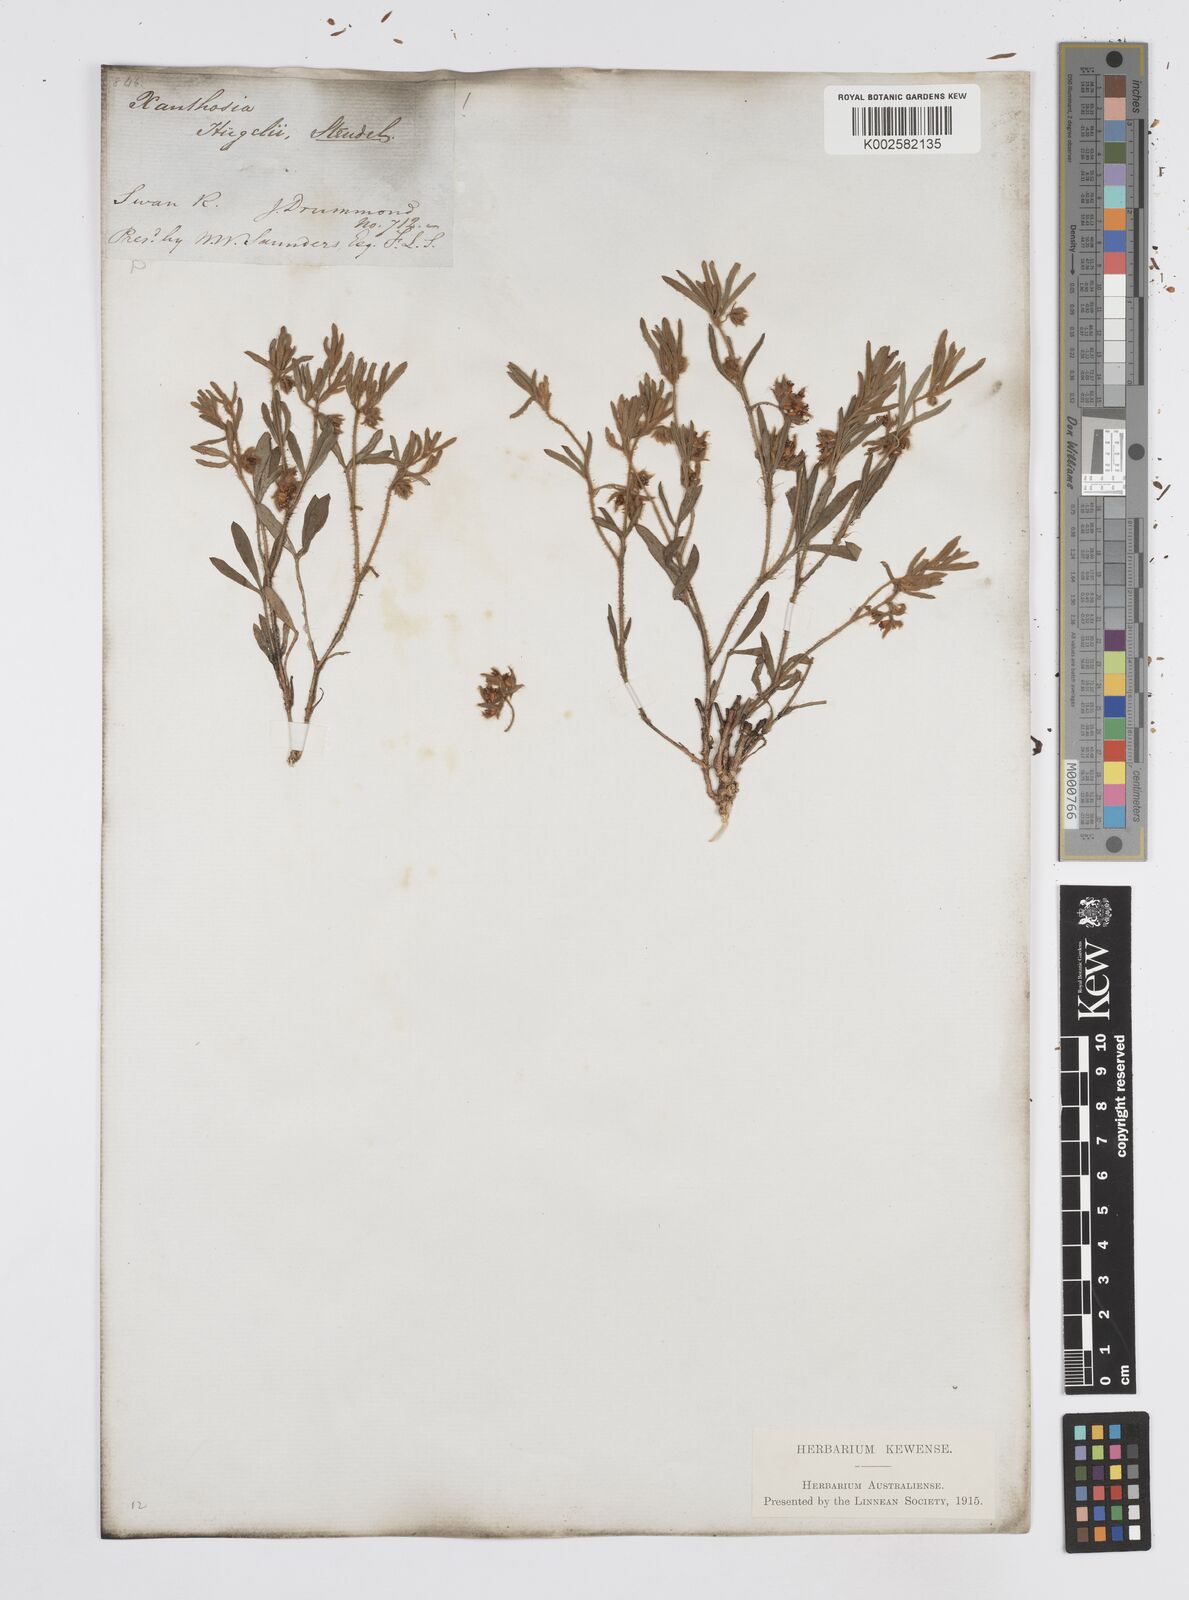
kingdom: Plantae
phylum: Tracheophyta
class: Magnoliopsida
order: Apiales
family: Apiaceae
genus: Xanthosia
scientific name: Xanthosia huegelii
